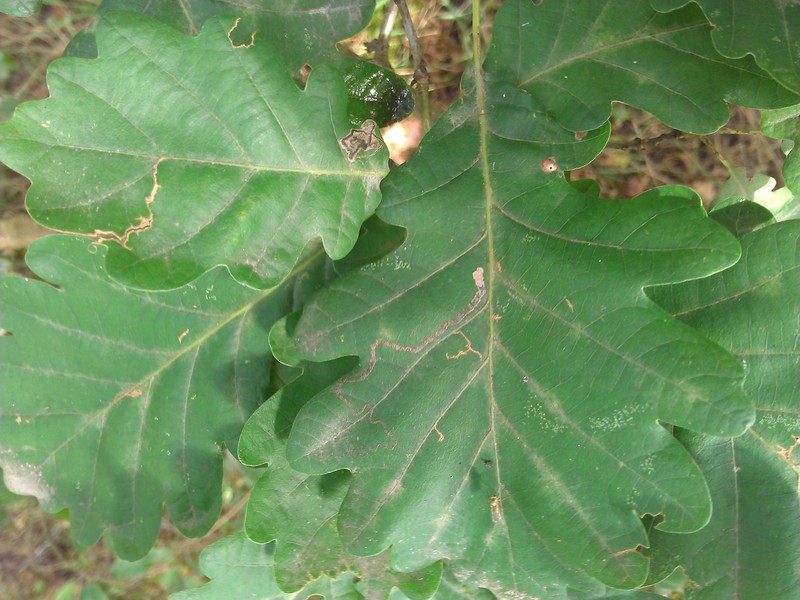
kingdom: Animalia
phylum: Arthropoda
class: Insecta
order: Lepidoptera
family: Nepticulidae
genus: Stigmella
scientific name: Stigmella basiguttella
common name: Base-spotted pigmy
